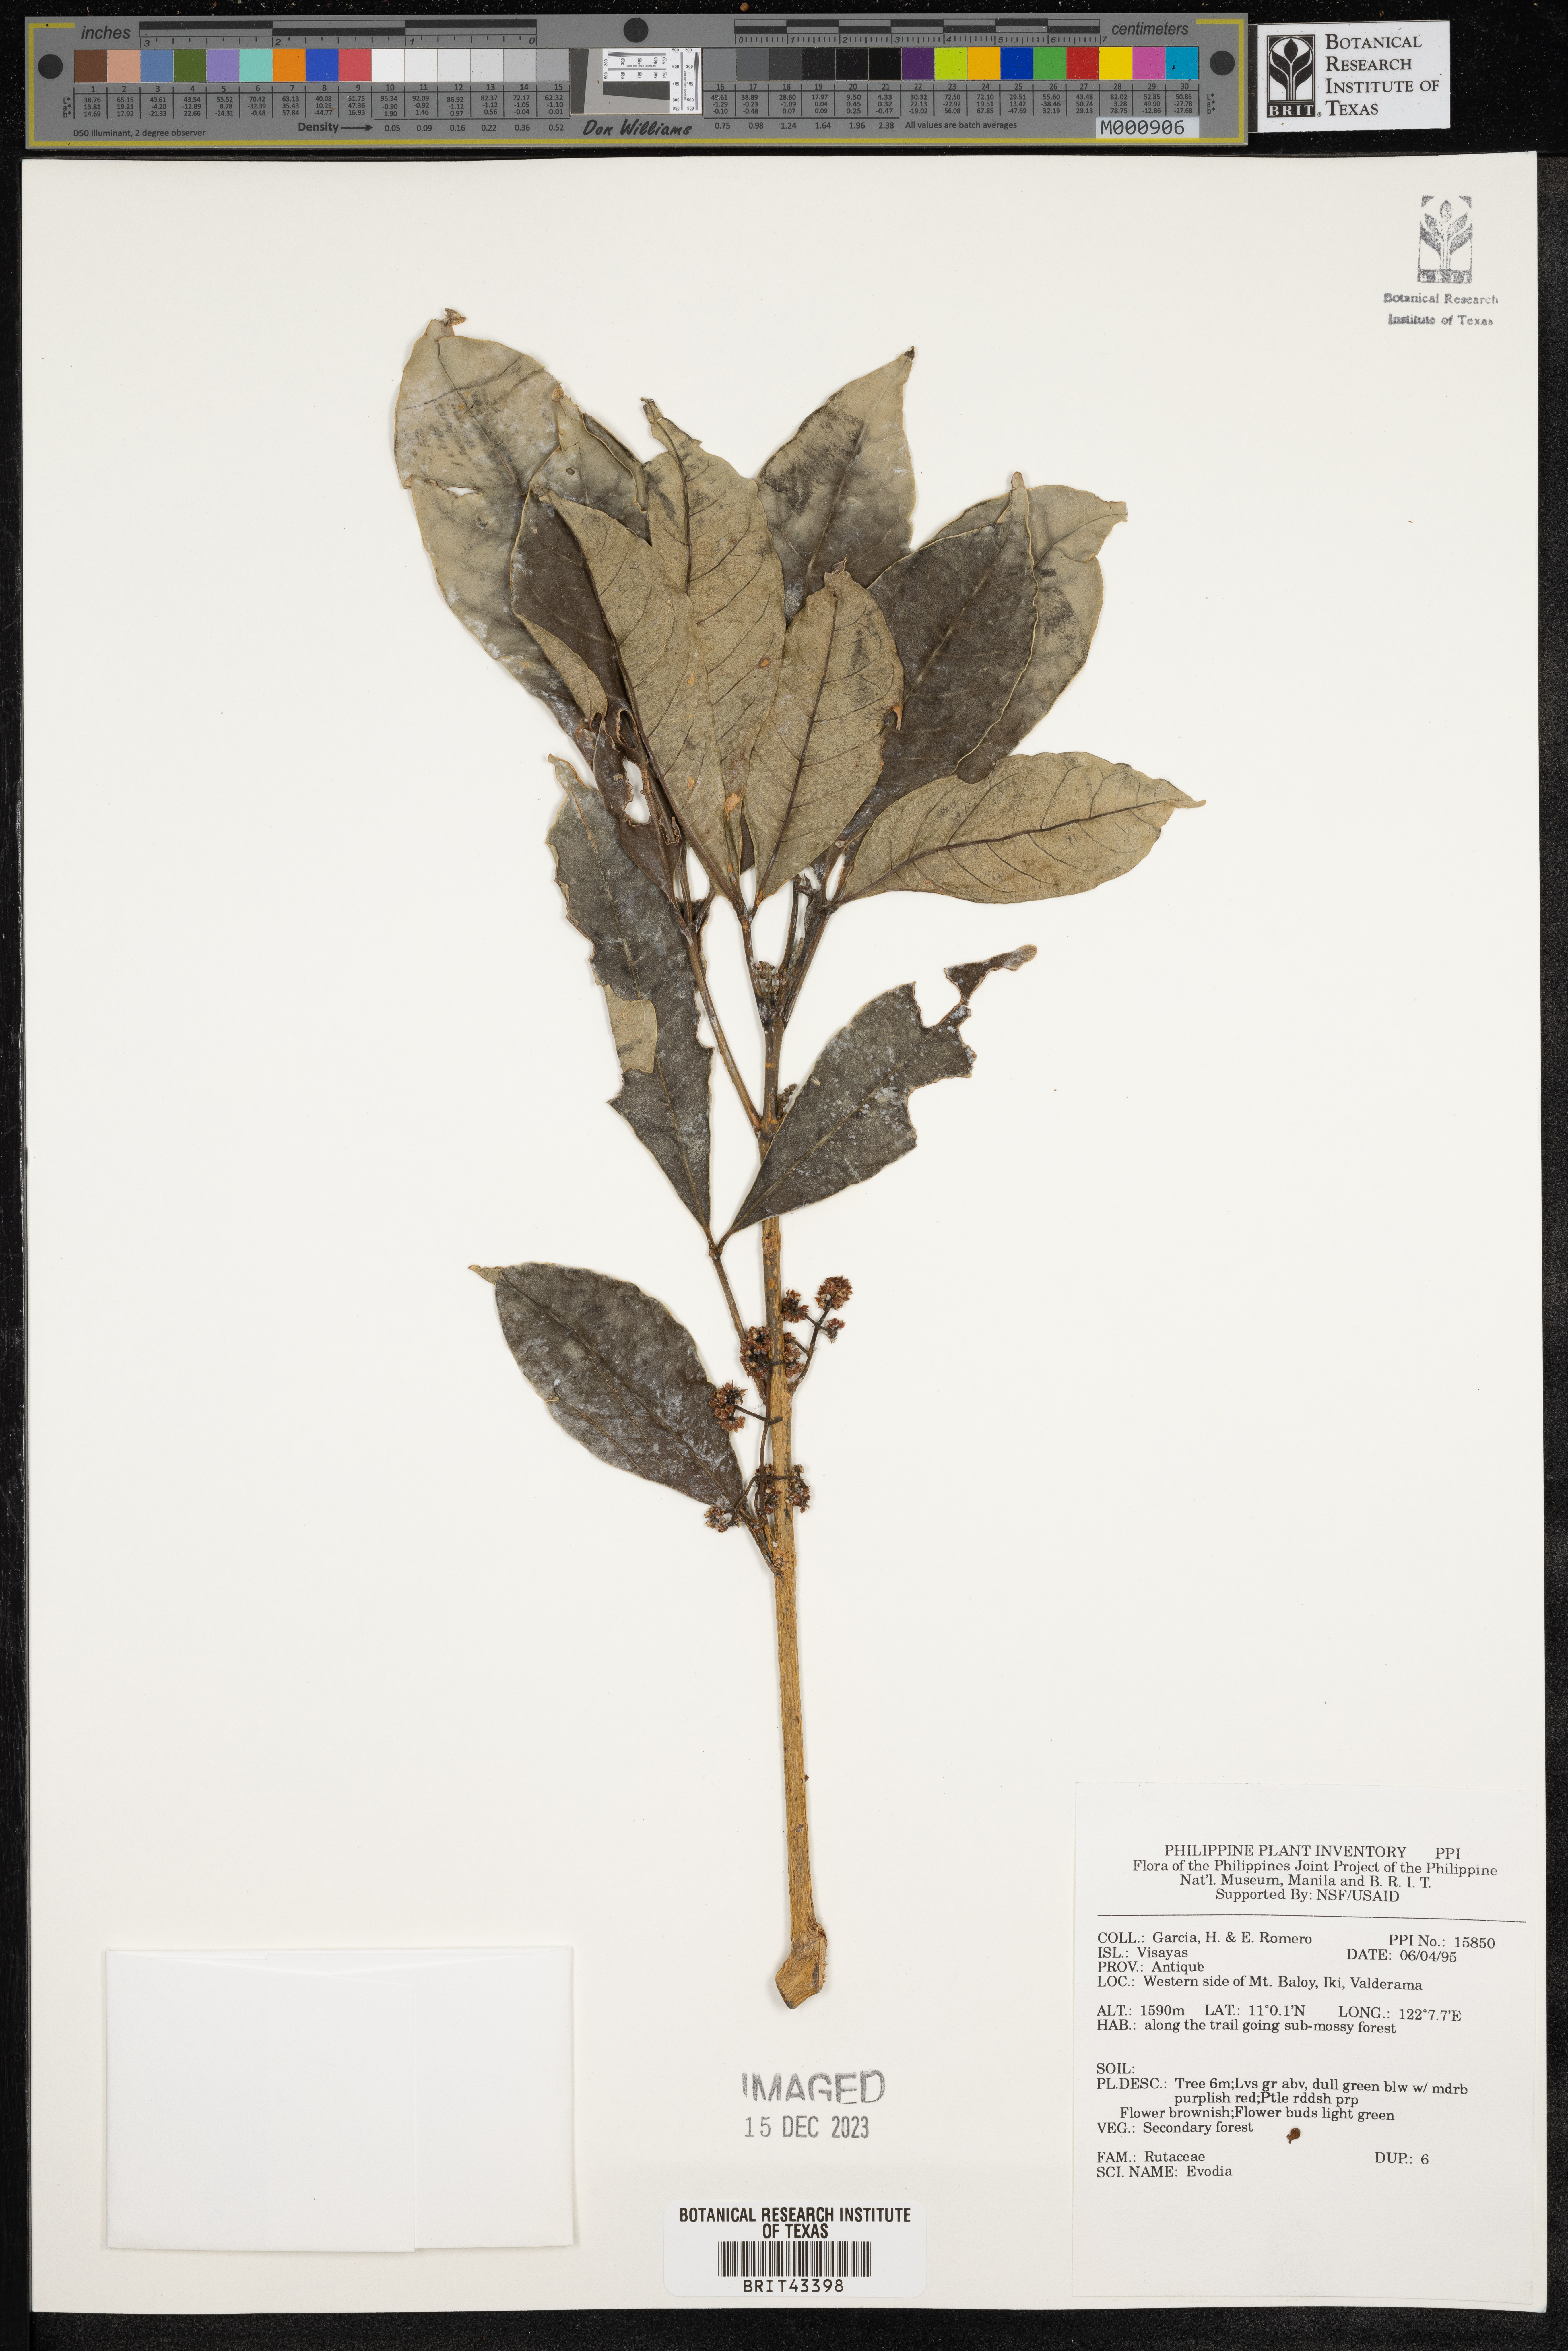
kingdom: Plantae
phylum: Tracheophyta
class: Magnoliopsida
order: Sapindales
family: Rutaceae
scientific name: Rutaceae
